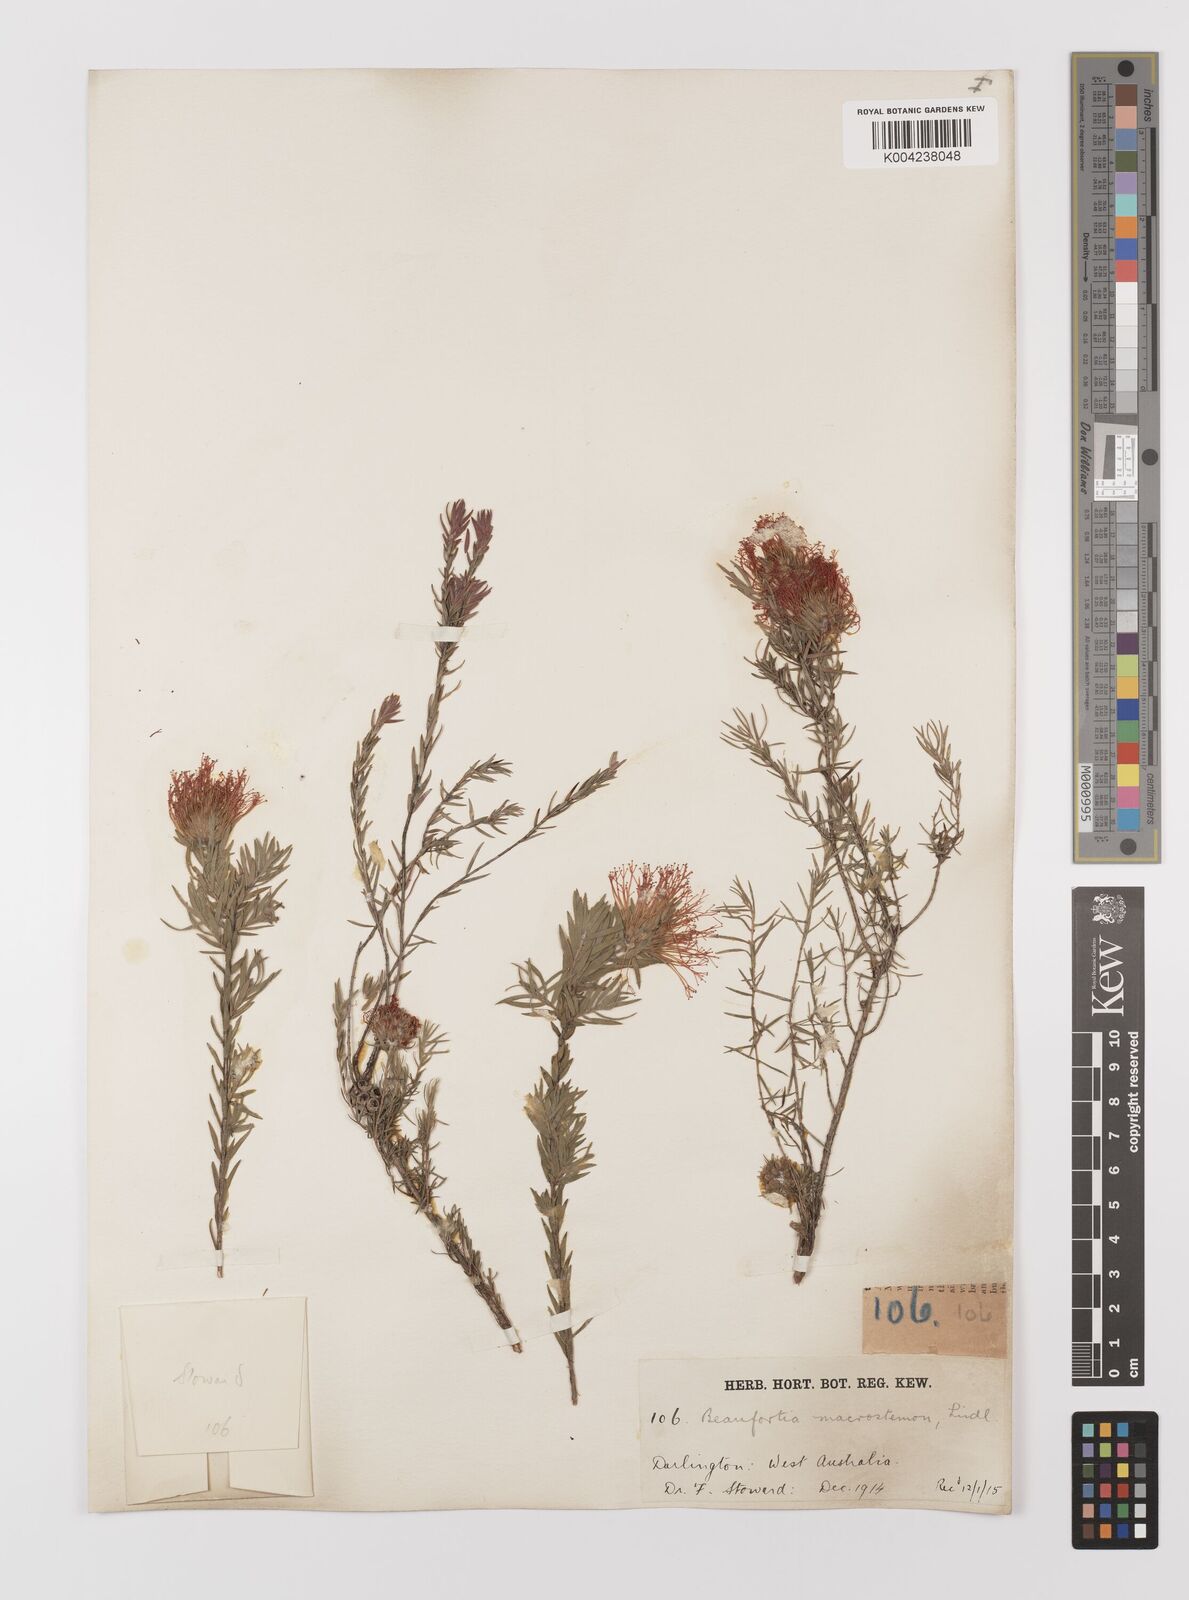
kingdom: Plantae
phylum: Tracheophyta
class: Magnoliopsida
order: Myrtales
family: Myrtaceae
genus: Melaleuca
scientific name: Melaleuca macrostemon
